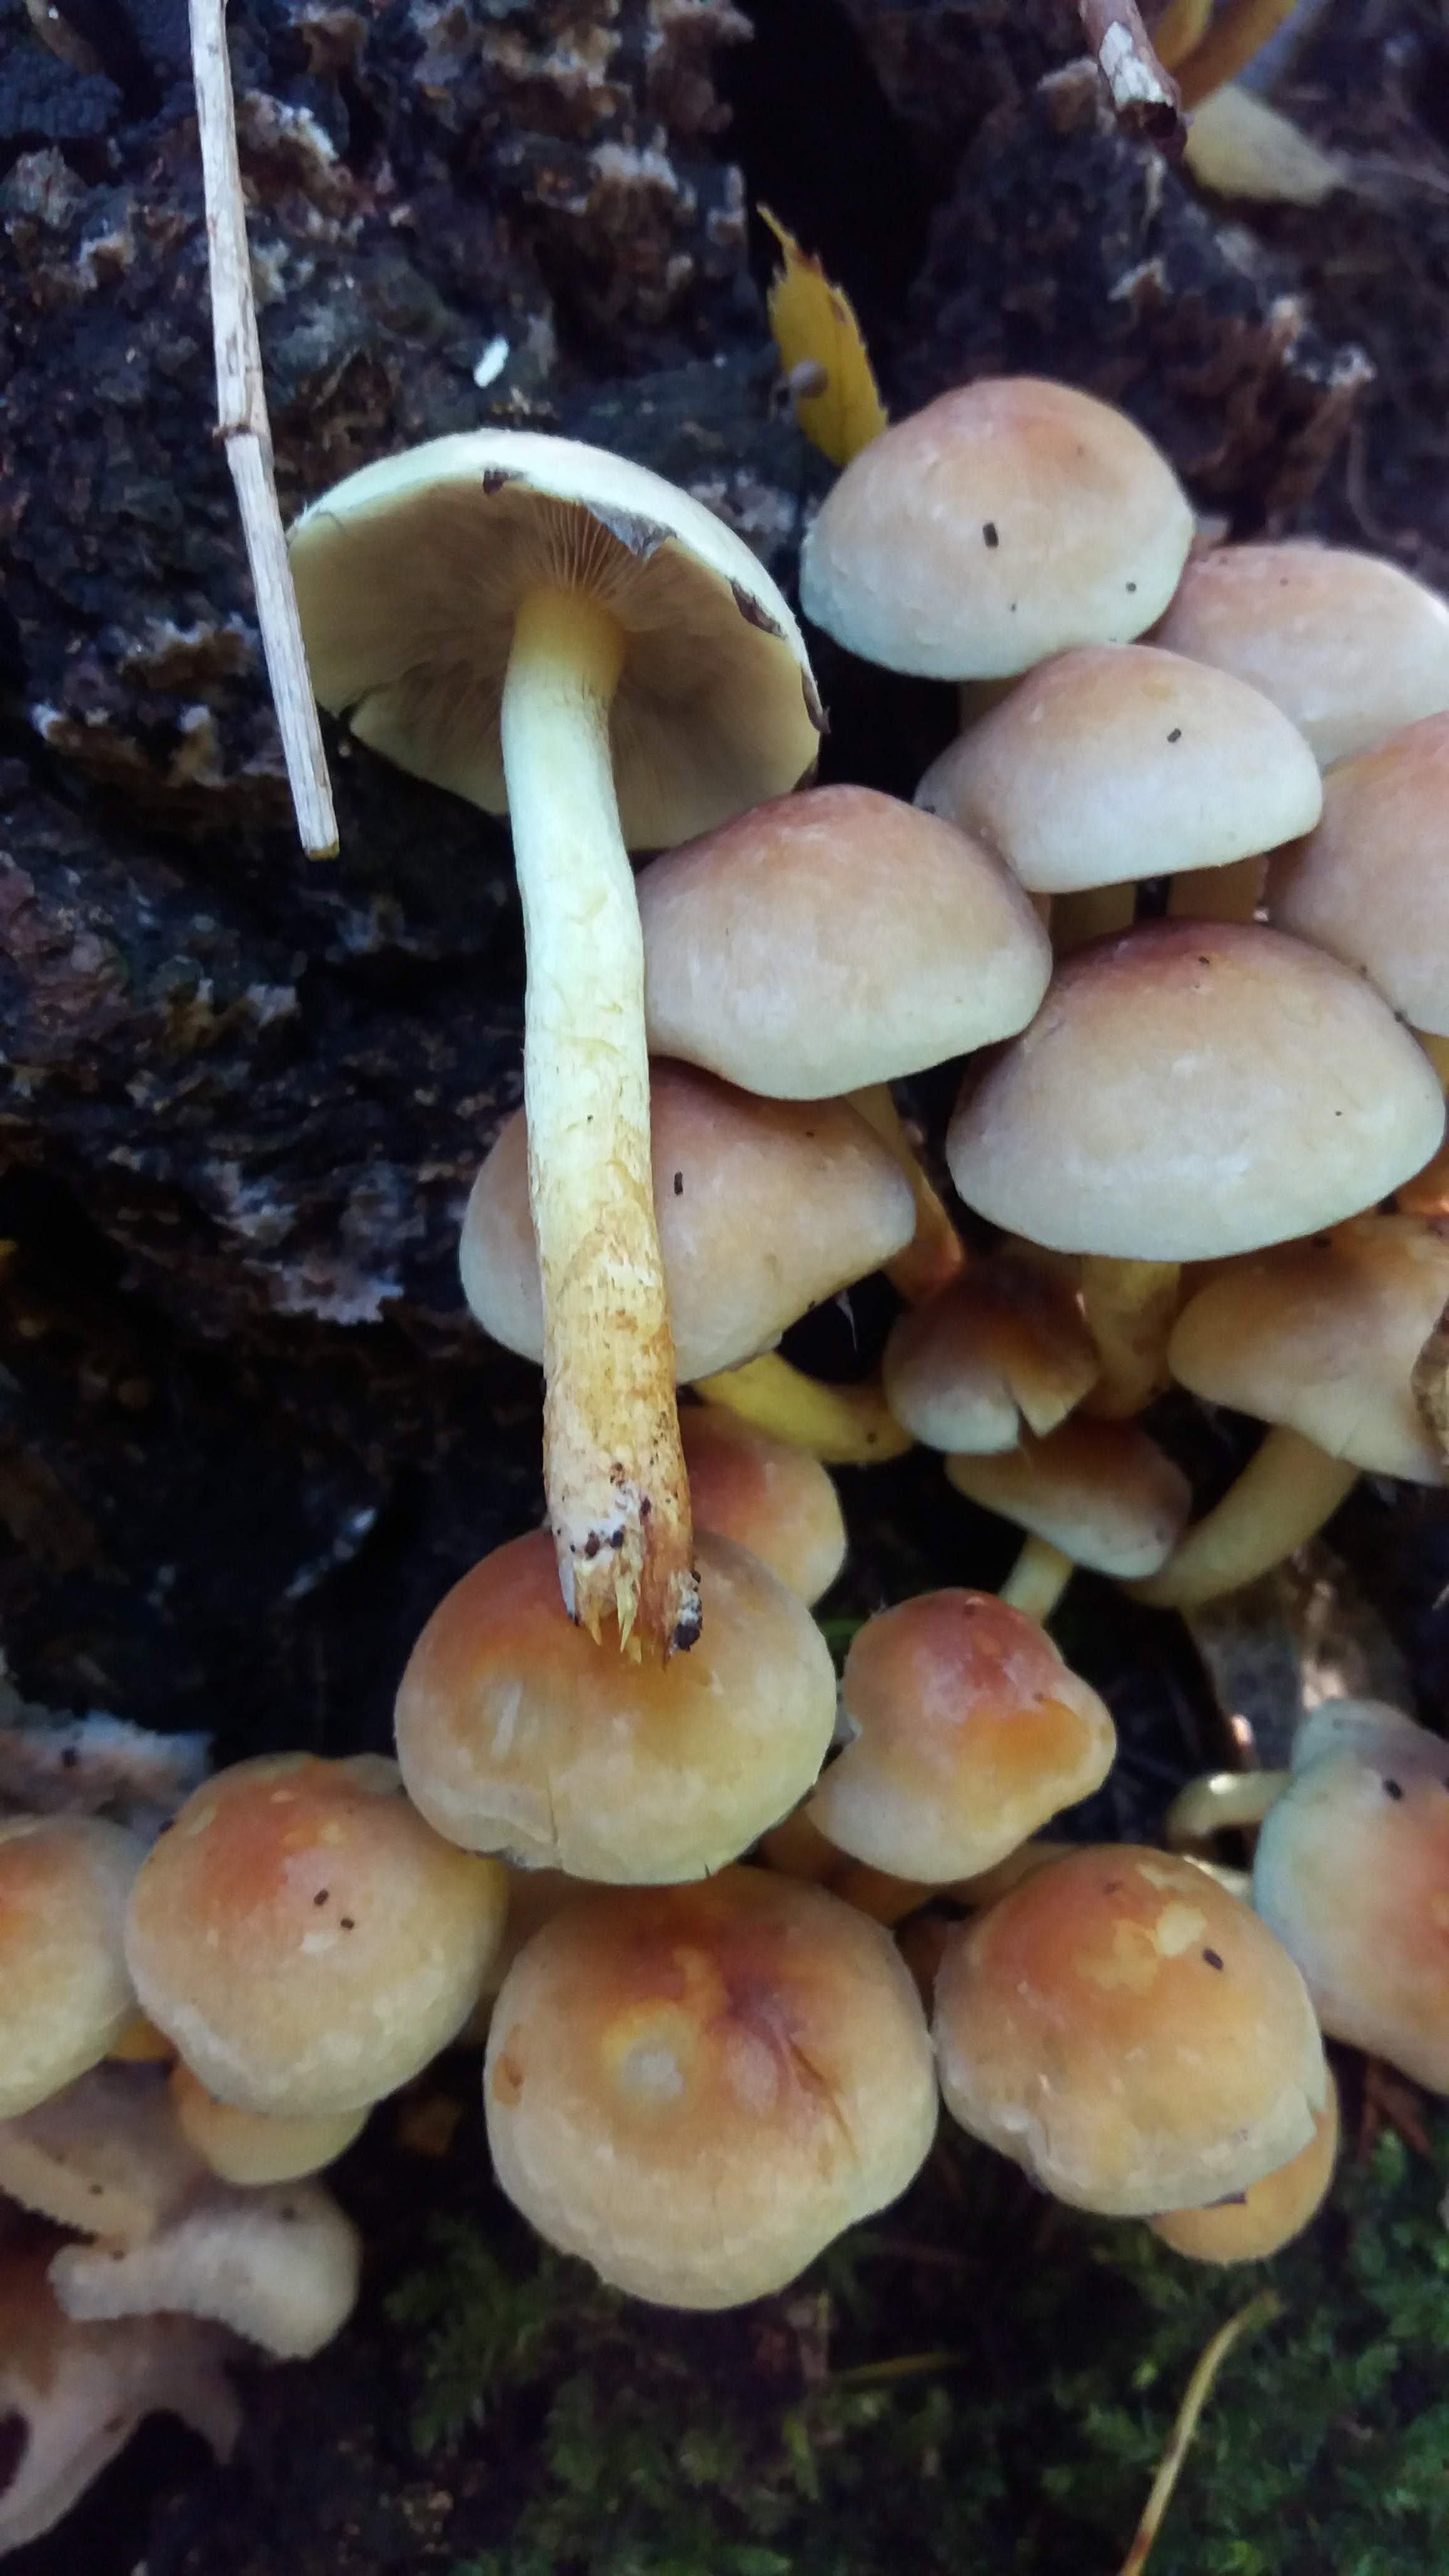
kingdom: Fungi
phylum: Basidiomycota
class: Agaricomycetes
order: Agaricales
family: Strophariaceae
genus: Hypholoma
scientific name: Hypholoma fasciculare
